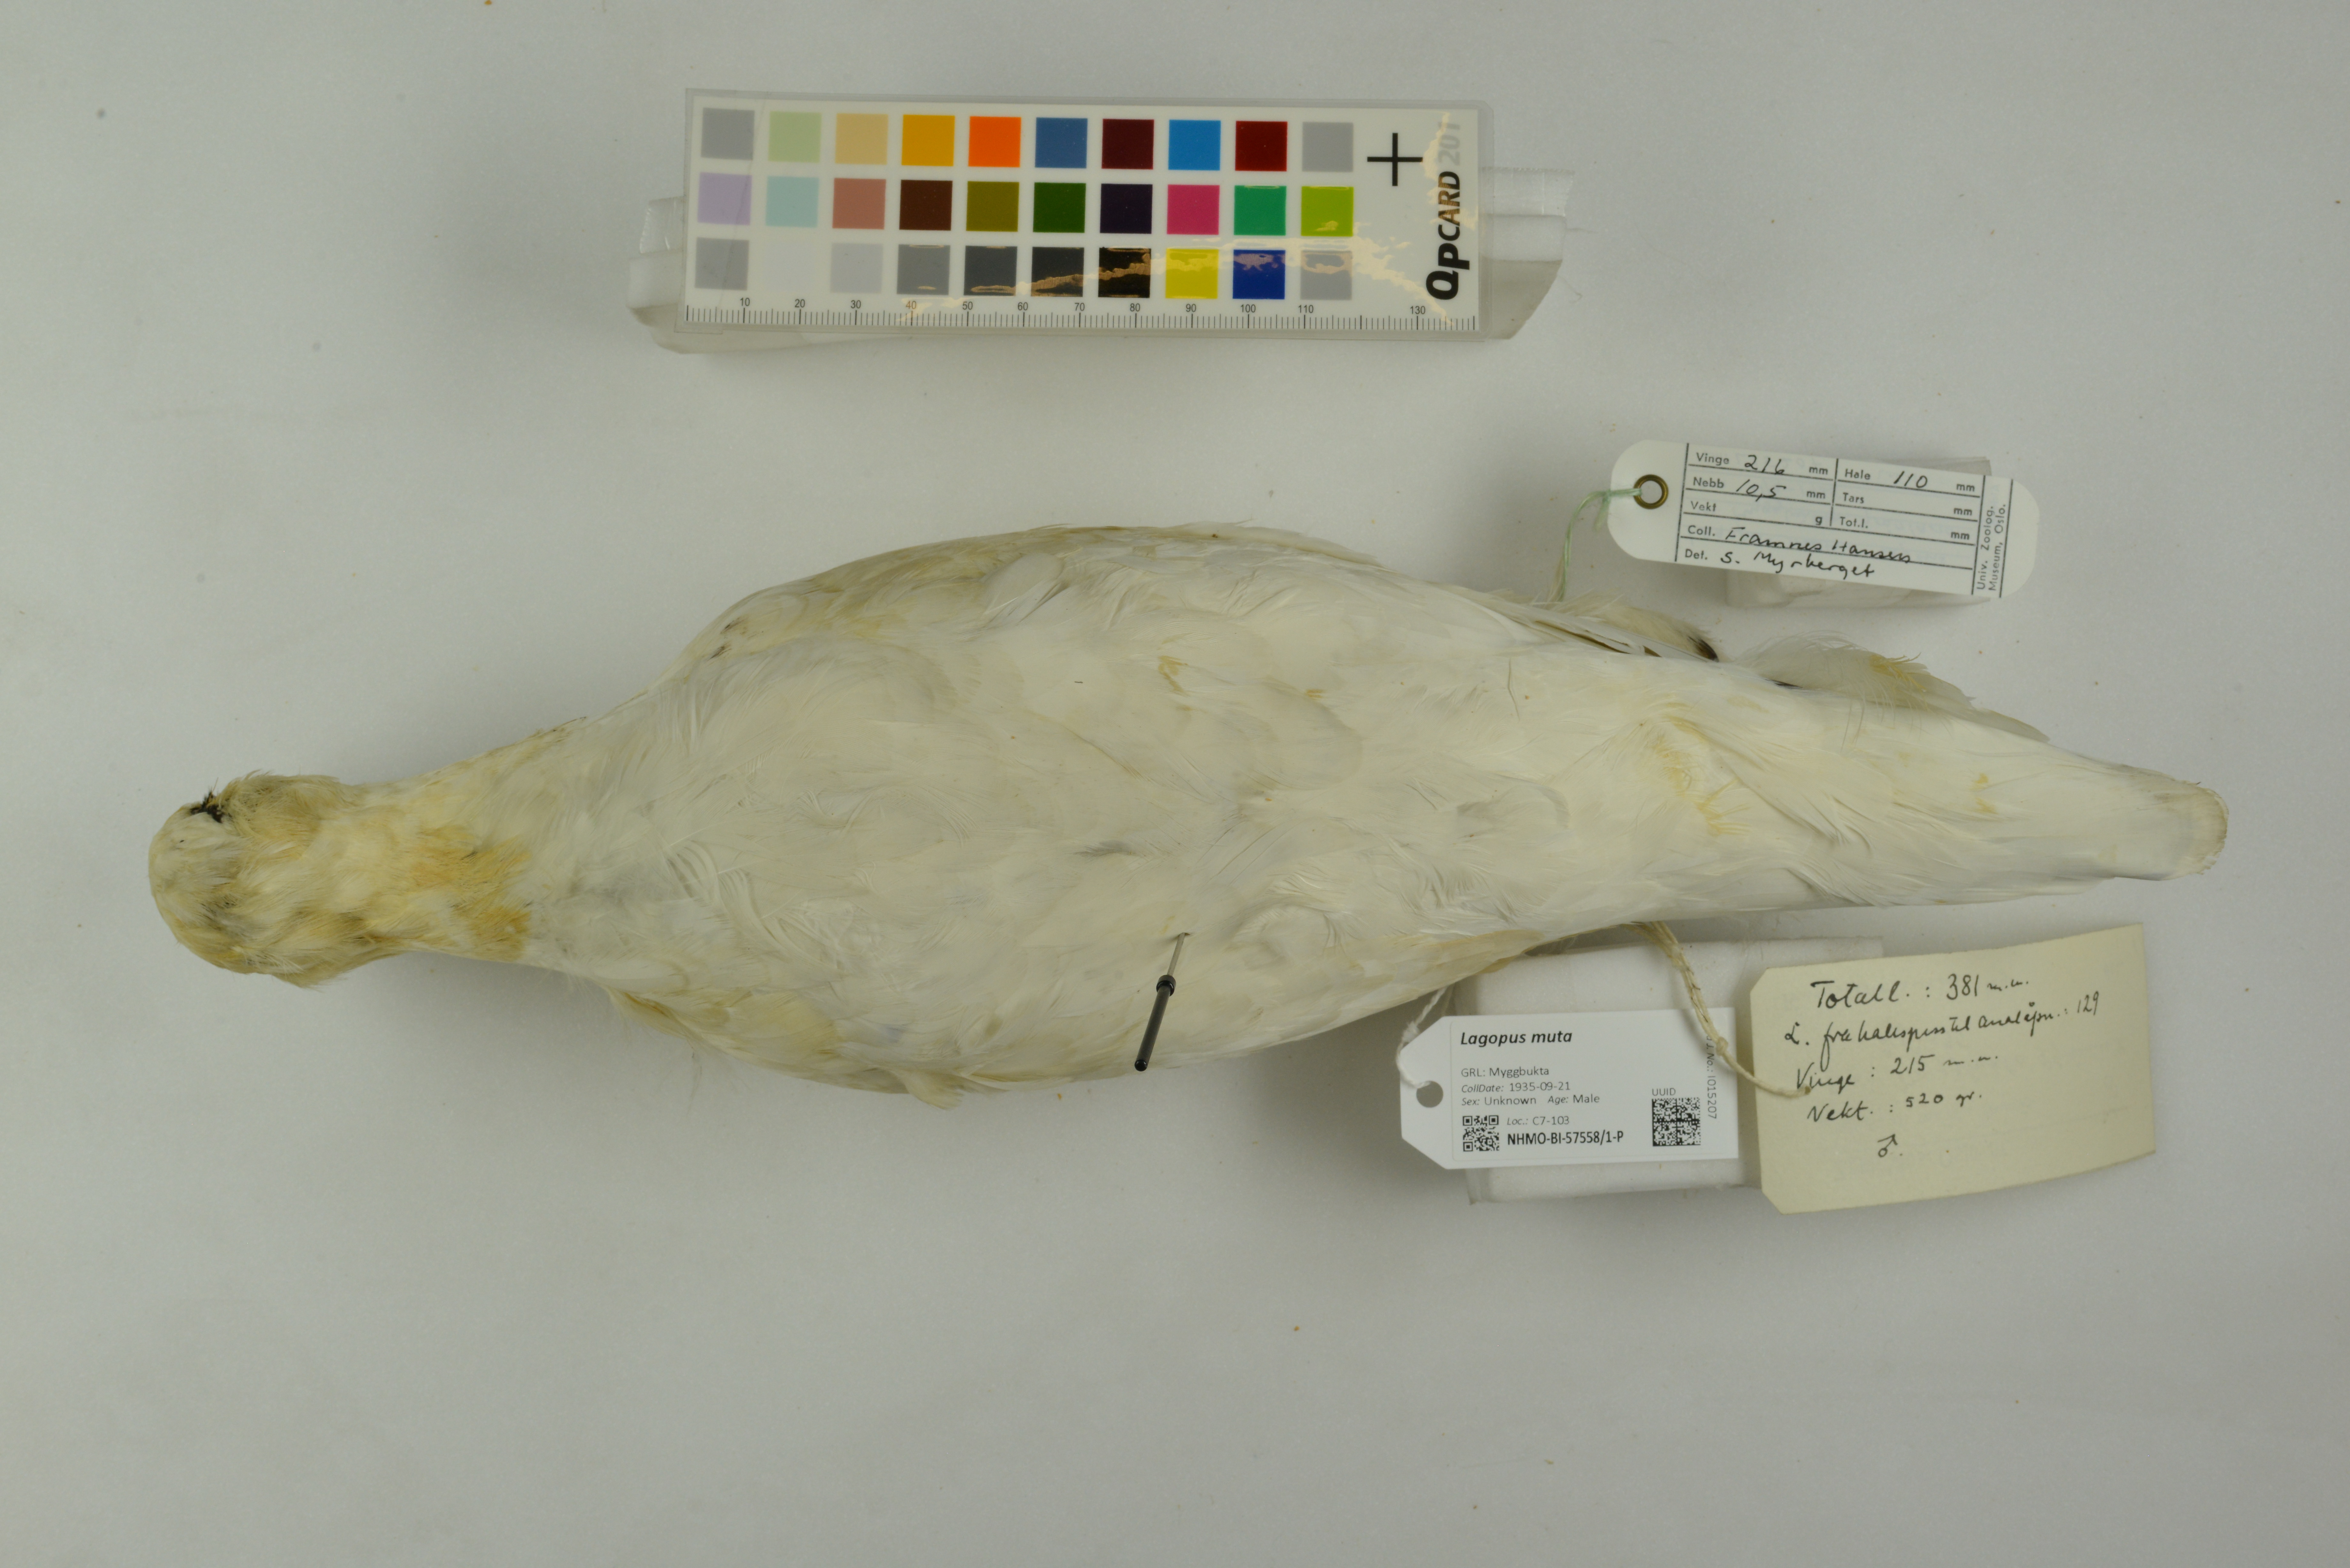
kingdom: Animalia
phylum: Chordata
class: Aves
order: Galliformes
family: Phasianidae
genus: Lagopus
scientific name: Lagopus muta
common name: Rock ptarmigan
